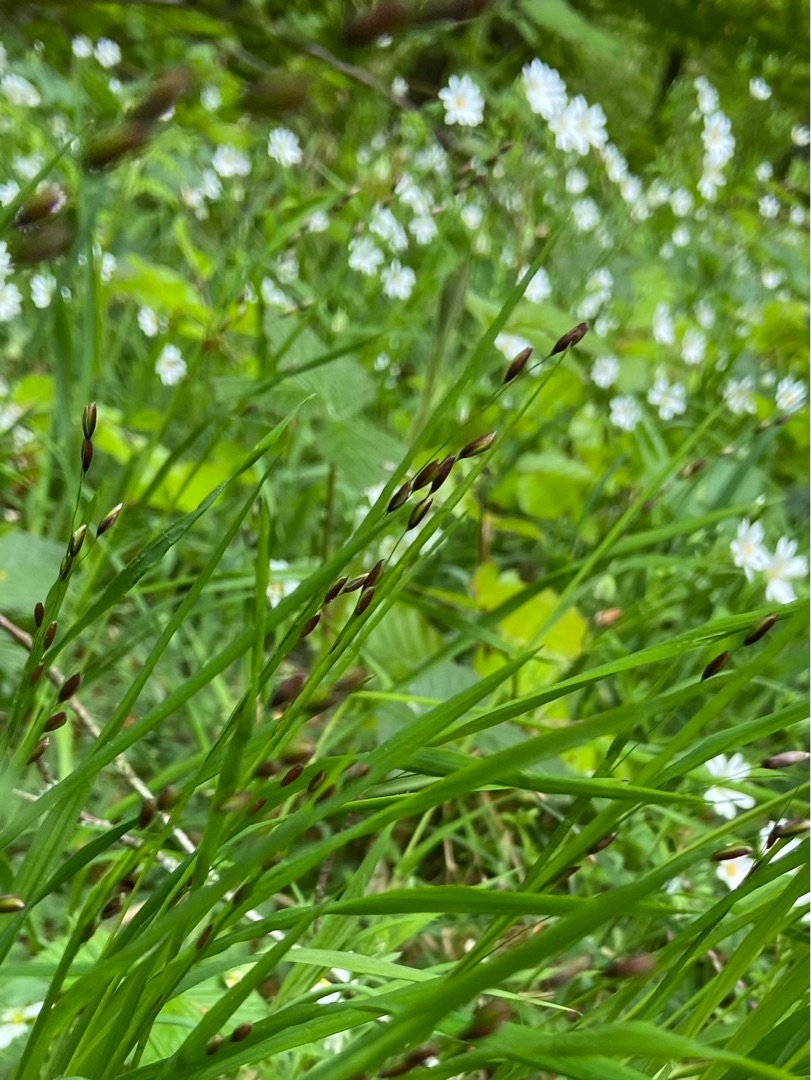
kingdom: Plantae
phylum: Tracheophyta
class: Liliopsida
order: Poales
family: Poaceae
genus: Melica
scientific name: Melica uniflora
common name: Enblomstret flitteraks
